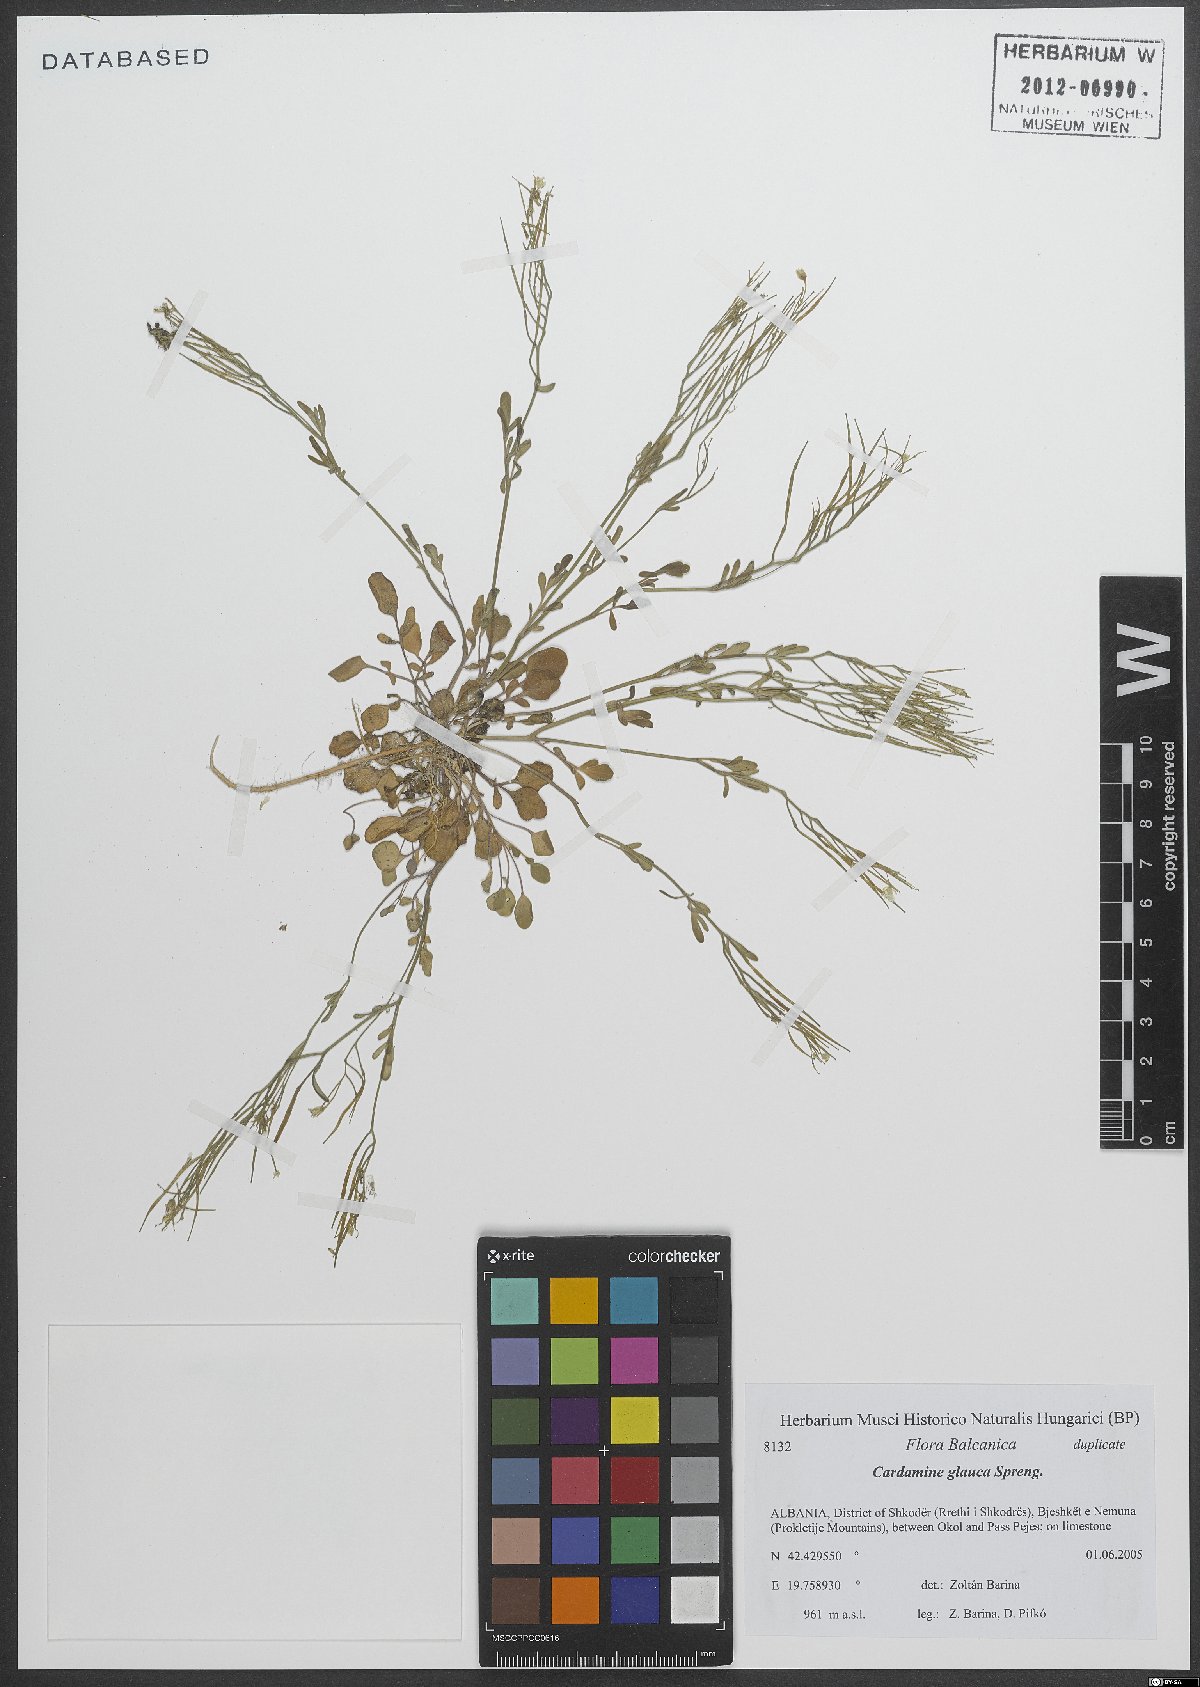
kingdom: Plantae
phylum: Tracheophyta
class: Magnoliopsida
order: Brassicales
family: Brassicaceae
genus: Cardamine
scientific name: Cardamine glauca
